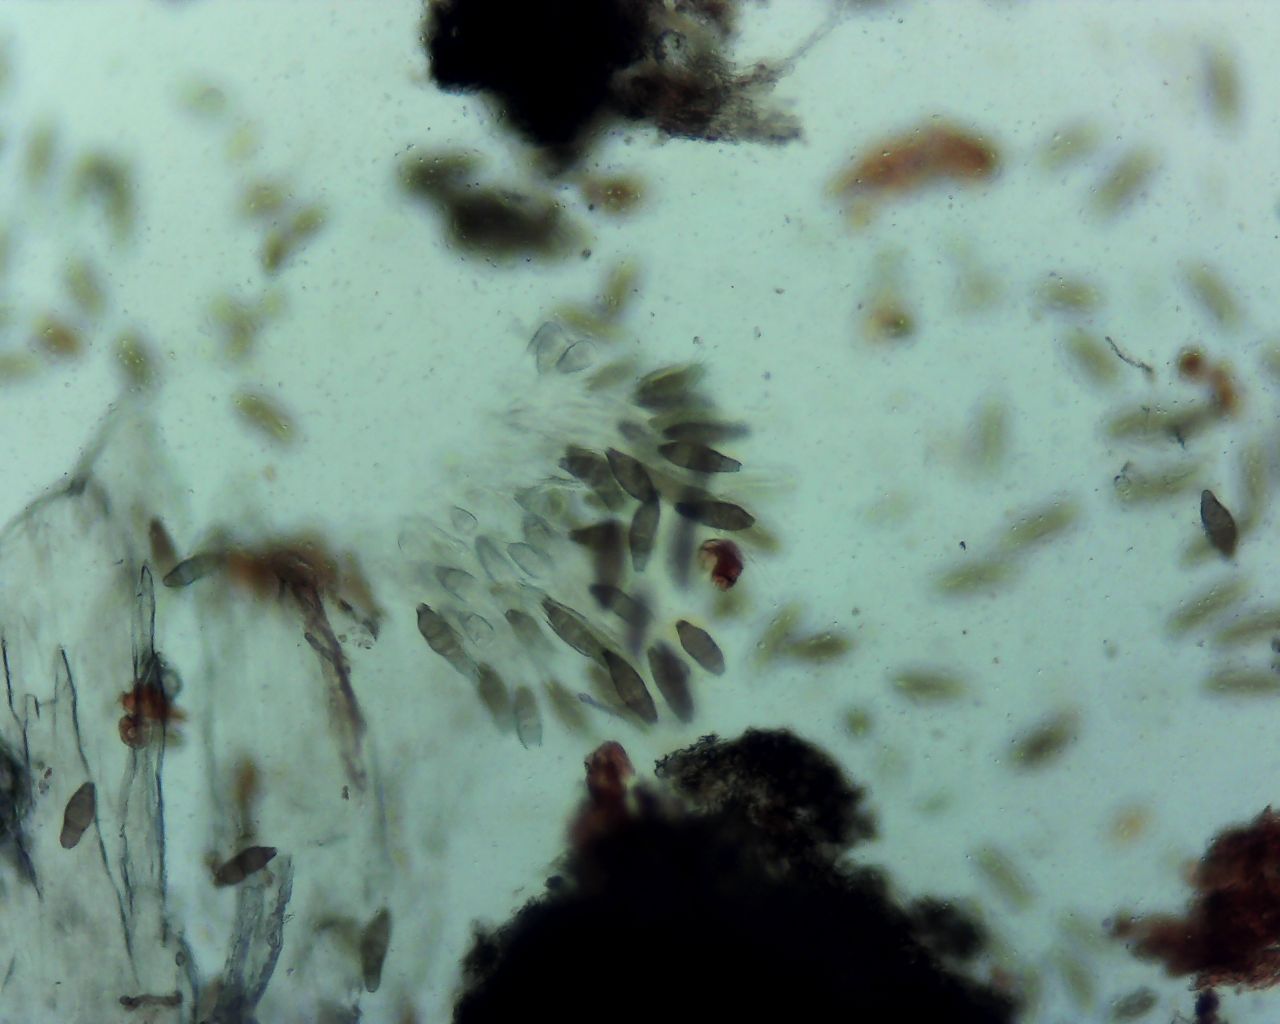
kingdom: Fungi
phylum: Ascomycota
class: Sordariomycetes
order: Diaporthales
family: Coryneaceae
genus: Coryneum
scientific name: Coryneum lanciforme
